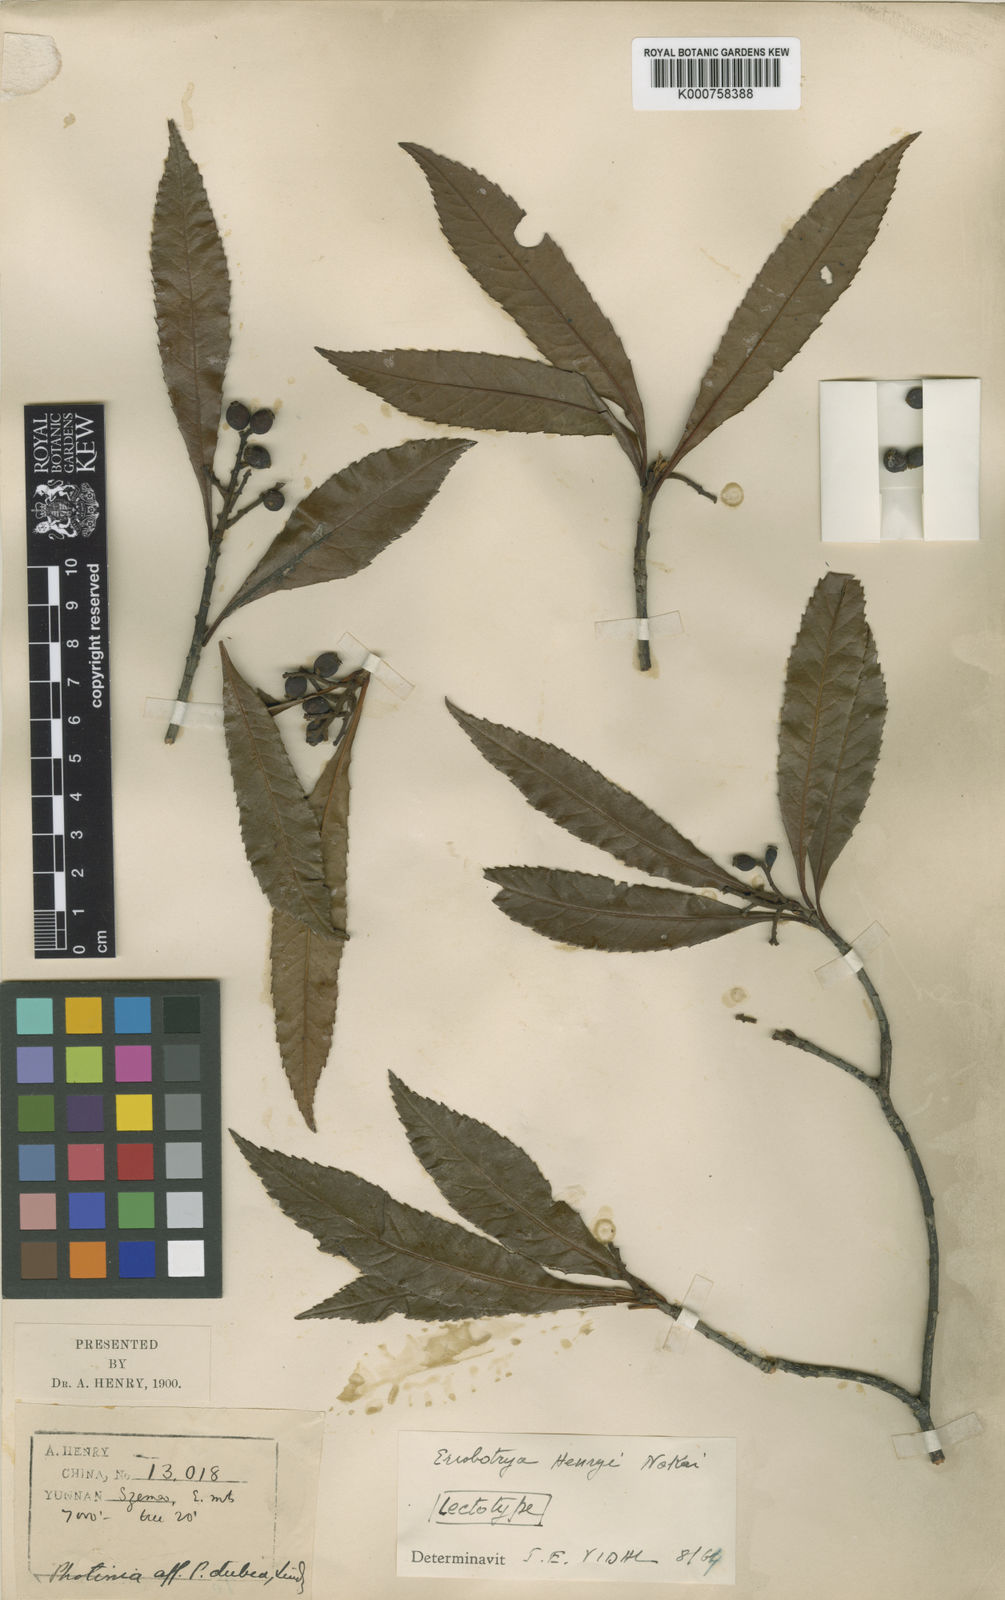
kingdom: Plantae
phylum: Tracheophyta
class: Magnoliopsida
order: Rosales
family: Rosaceae
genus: Rhaphiolepis
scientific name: Rhaphiolepis henryi
